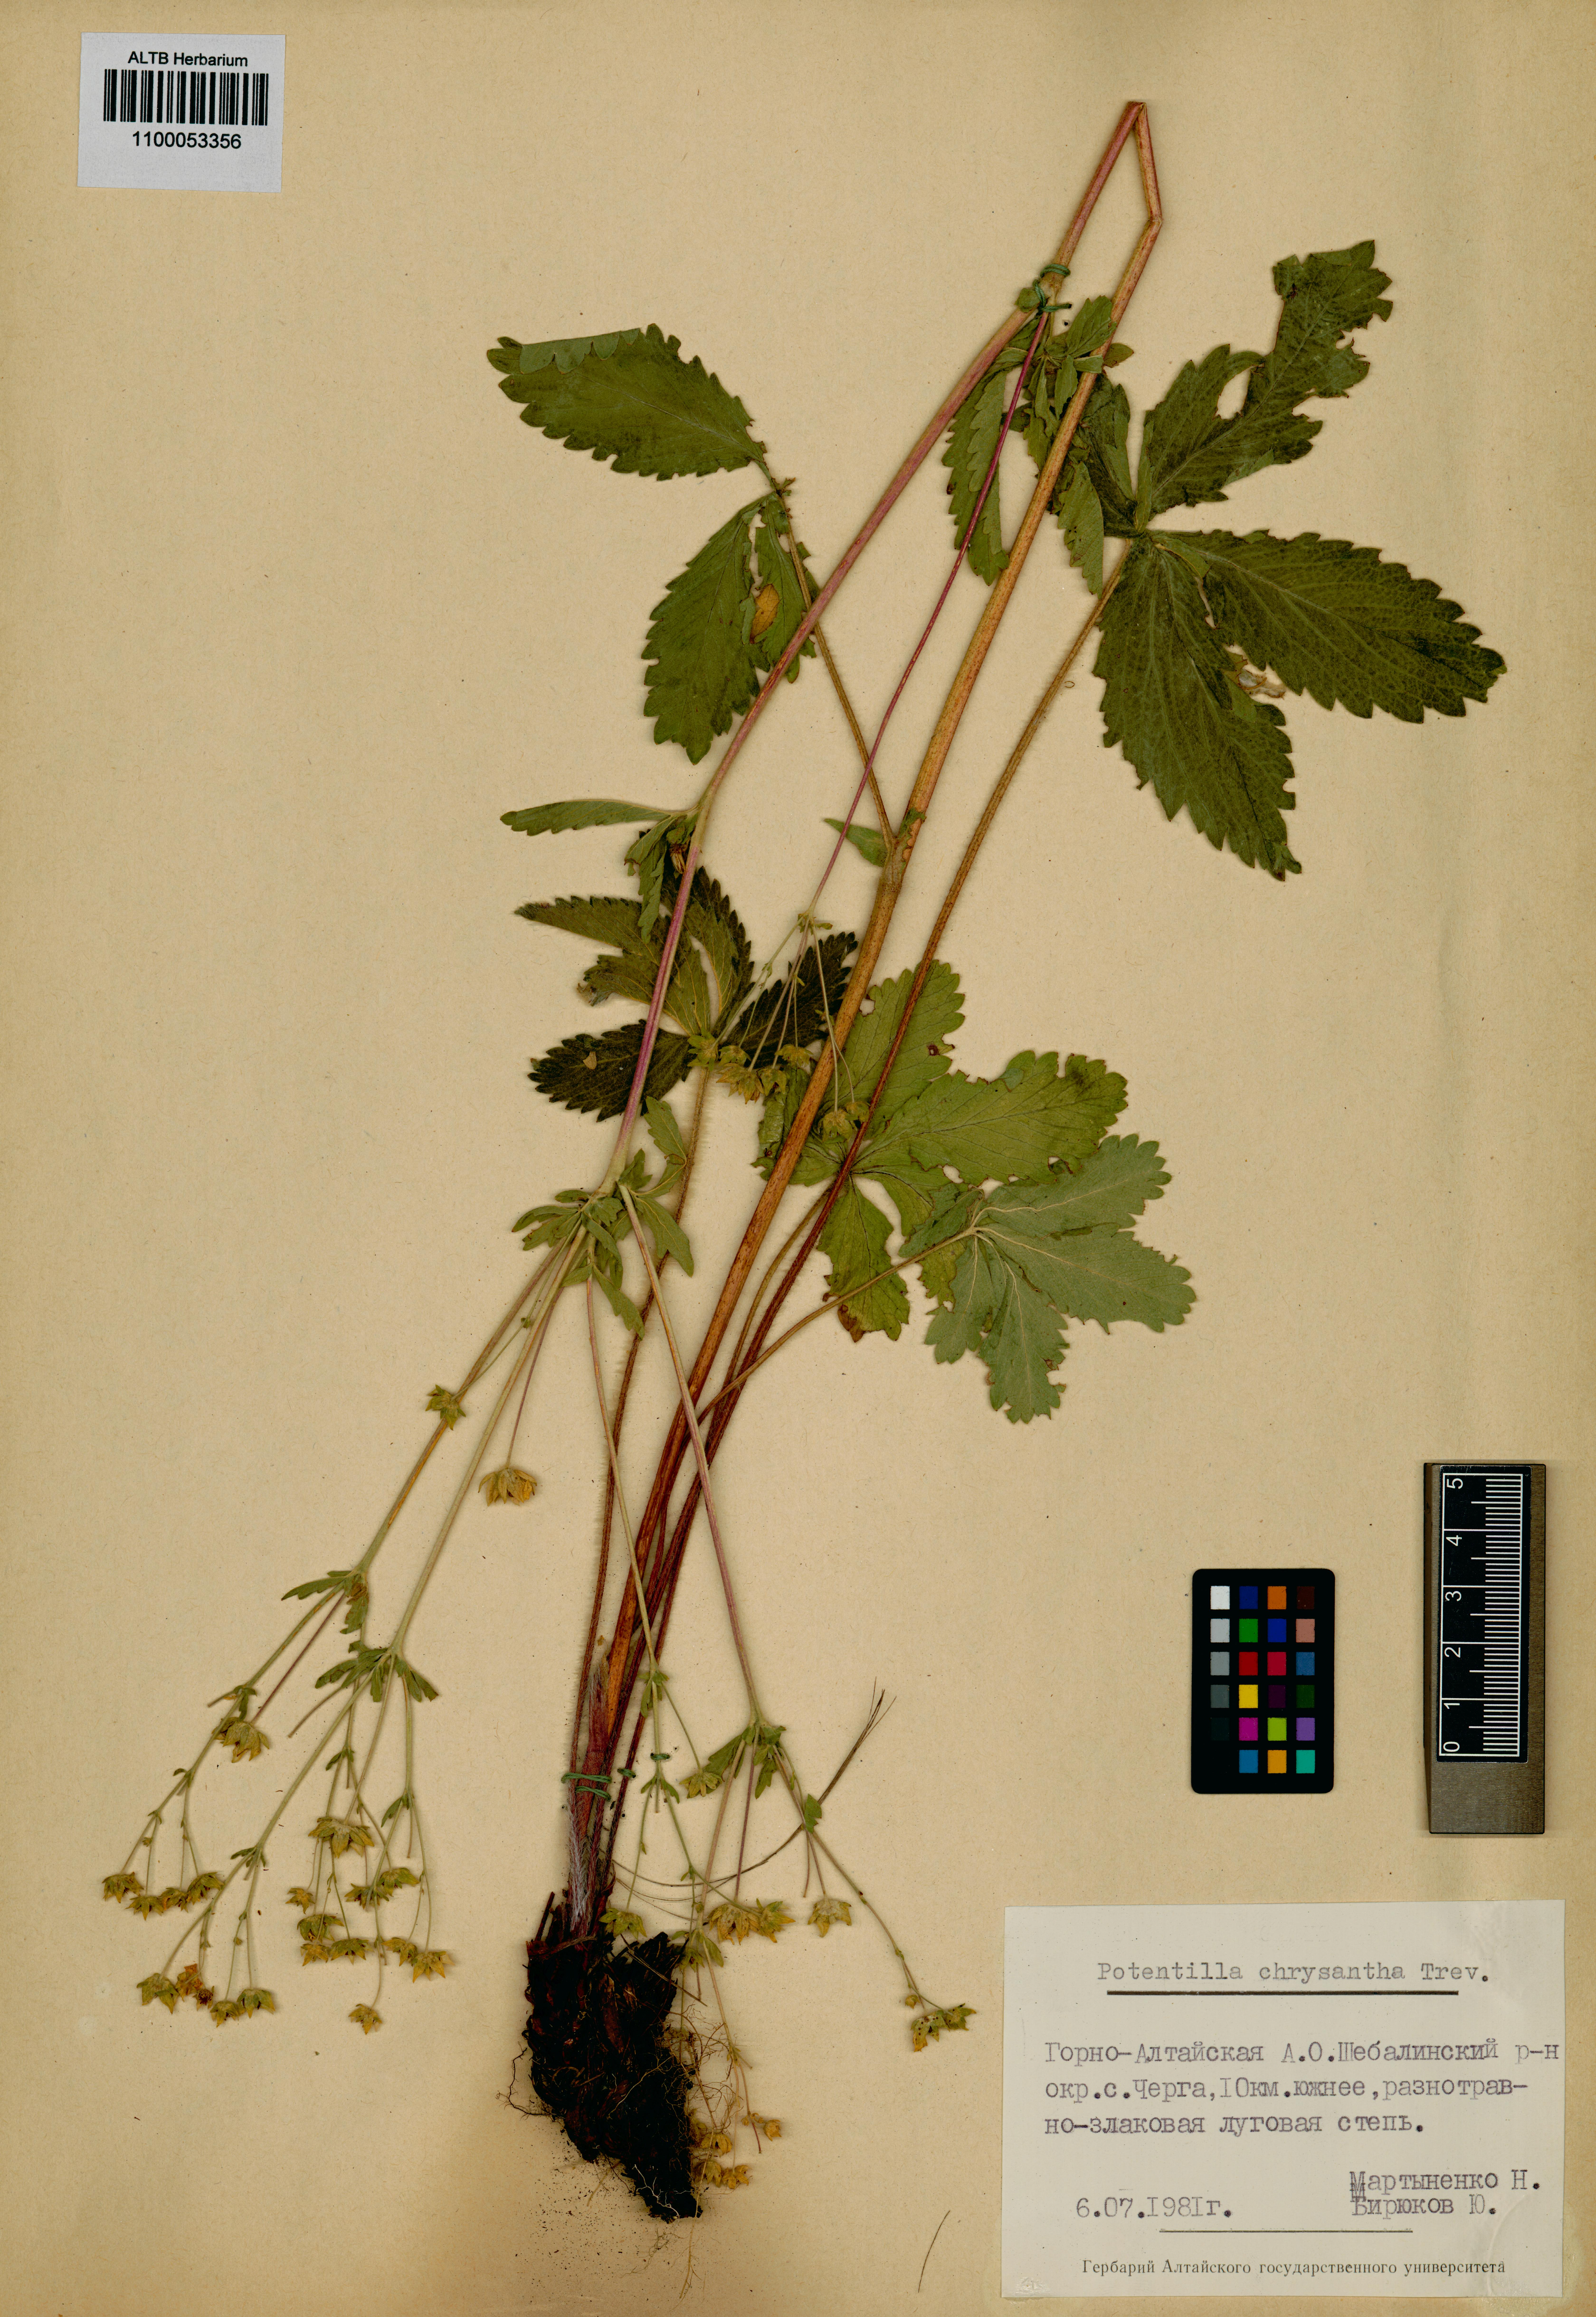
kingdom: Plantae
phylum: Tracheophyta
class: Magnoliopsida
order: Rosales
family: Rosaceae
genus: Potentilla
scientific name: Potentilla chrysantha
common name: Thuringian cinquefoil
